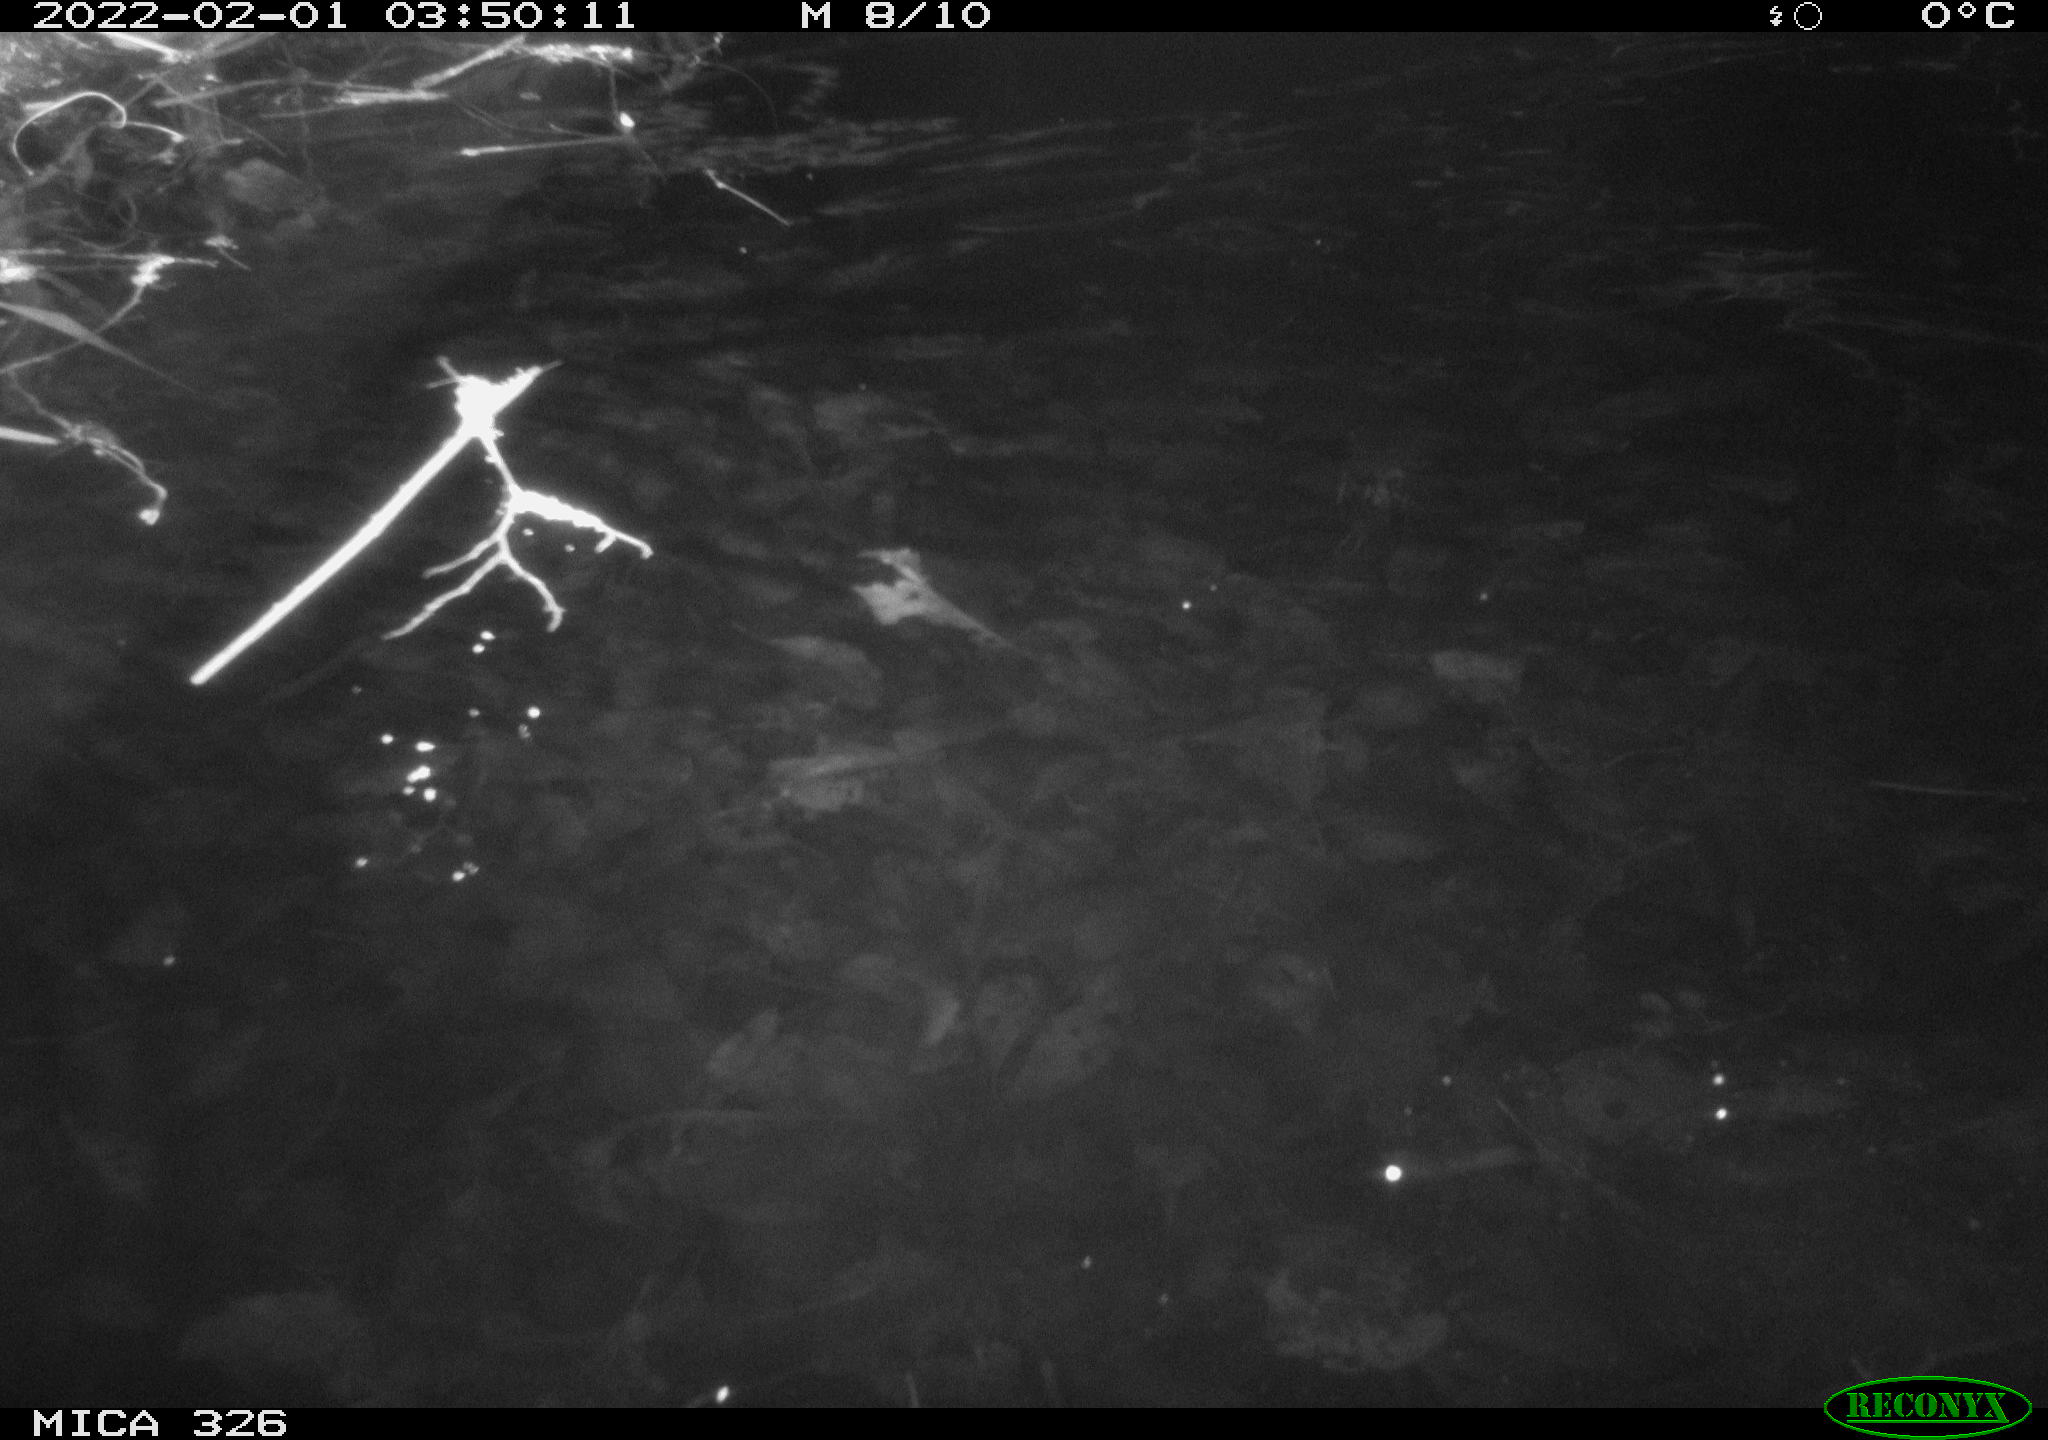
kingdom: Animalia
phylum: Chordata
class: Mammalia
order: Rodentia
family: Muridae
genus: Rattus
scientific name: Rattus norvegicus
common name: Brown rat
